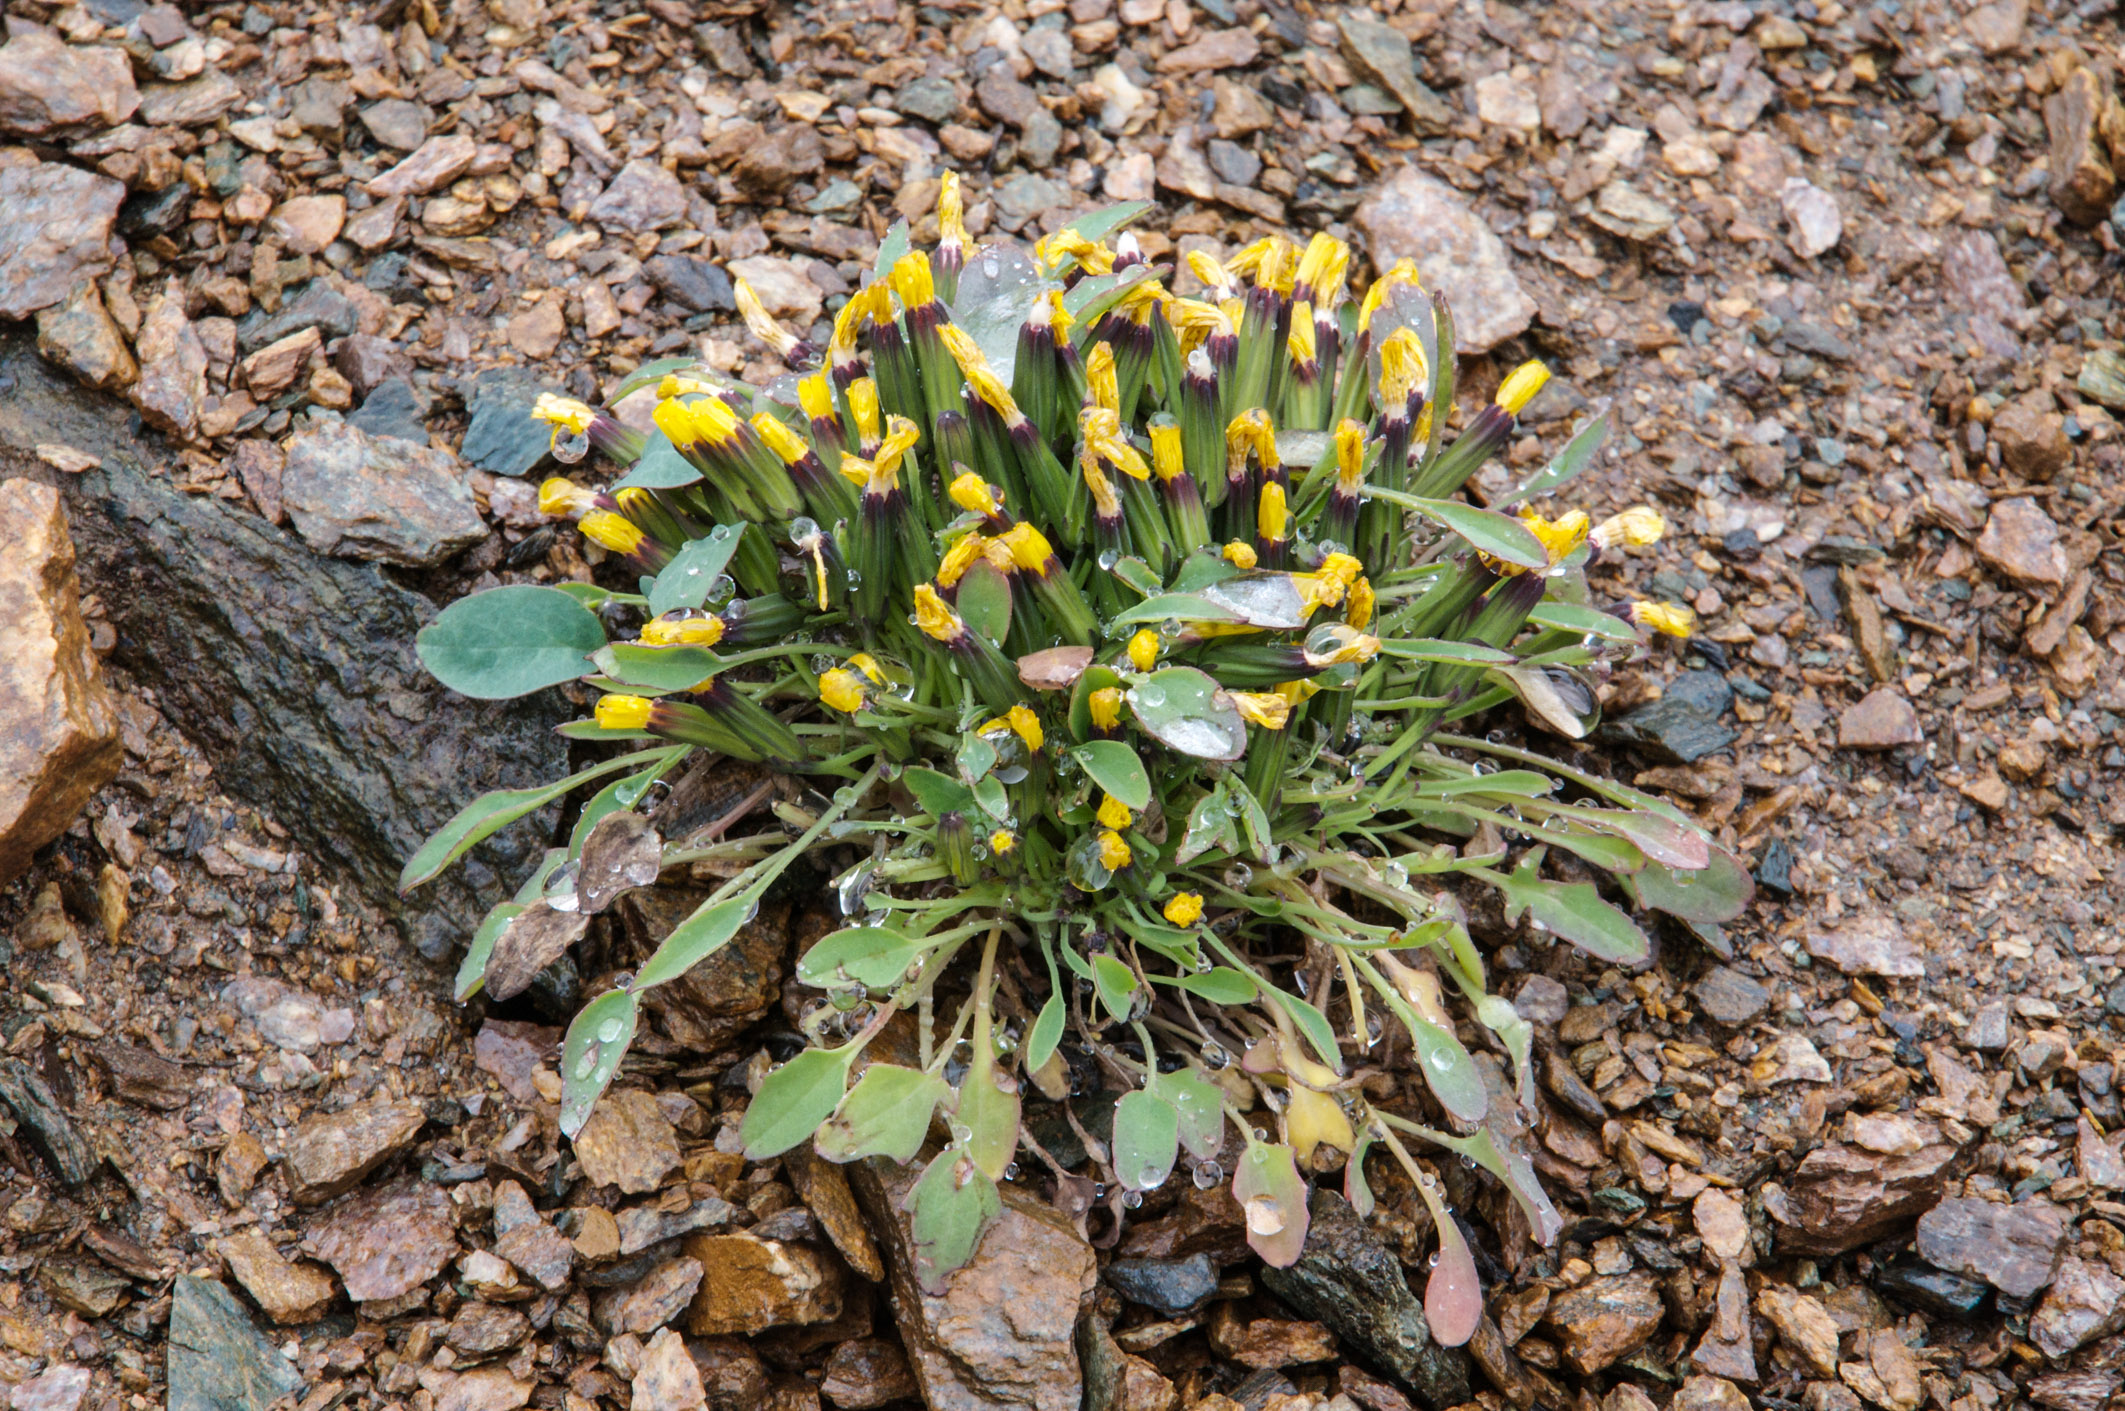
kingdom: Plantae
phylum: Tracheophyta
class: Magnoliopsida
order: Asterales
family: Asteraceae
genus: Askellia
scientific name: Askellia pygmaea
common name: Dwarf alpine hawksbeard
